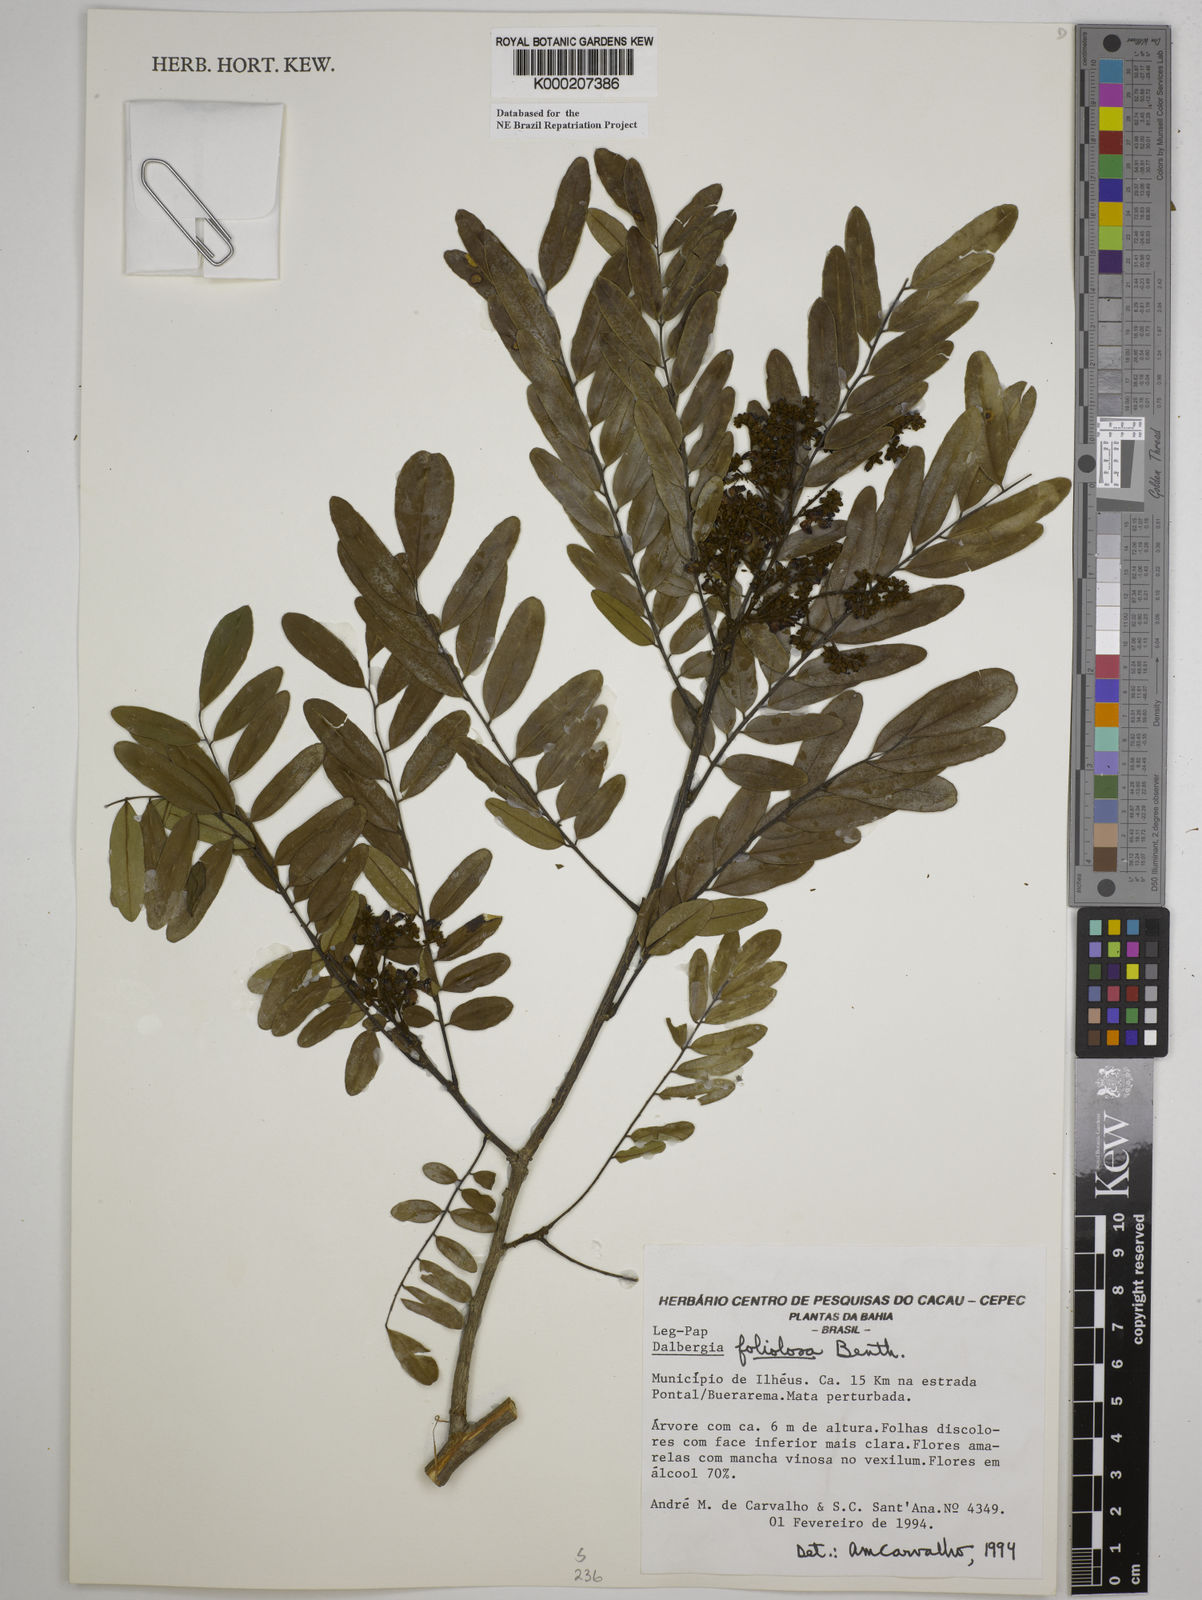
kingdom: Plantae
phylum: Tracheophyta
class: Magnoliopsida
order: Fabales
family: Fabaceae
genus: Dalbergia
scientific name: Dalbergia foliolosa
